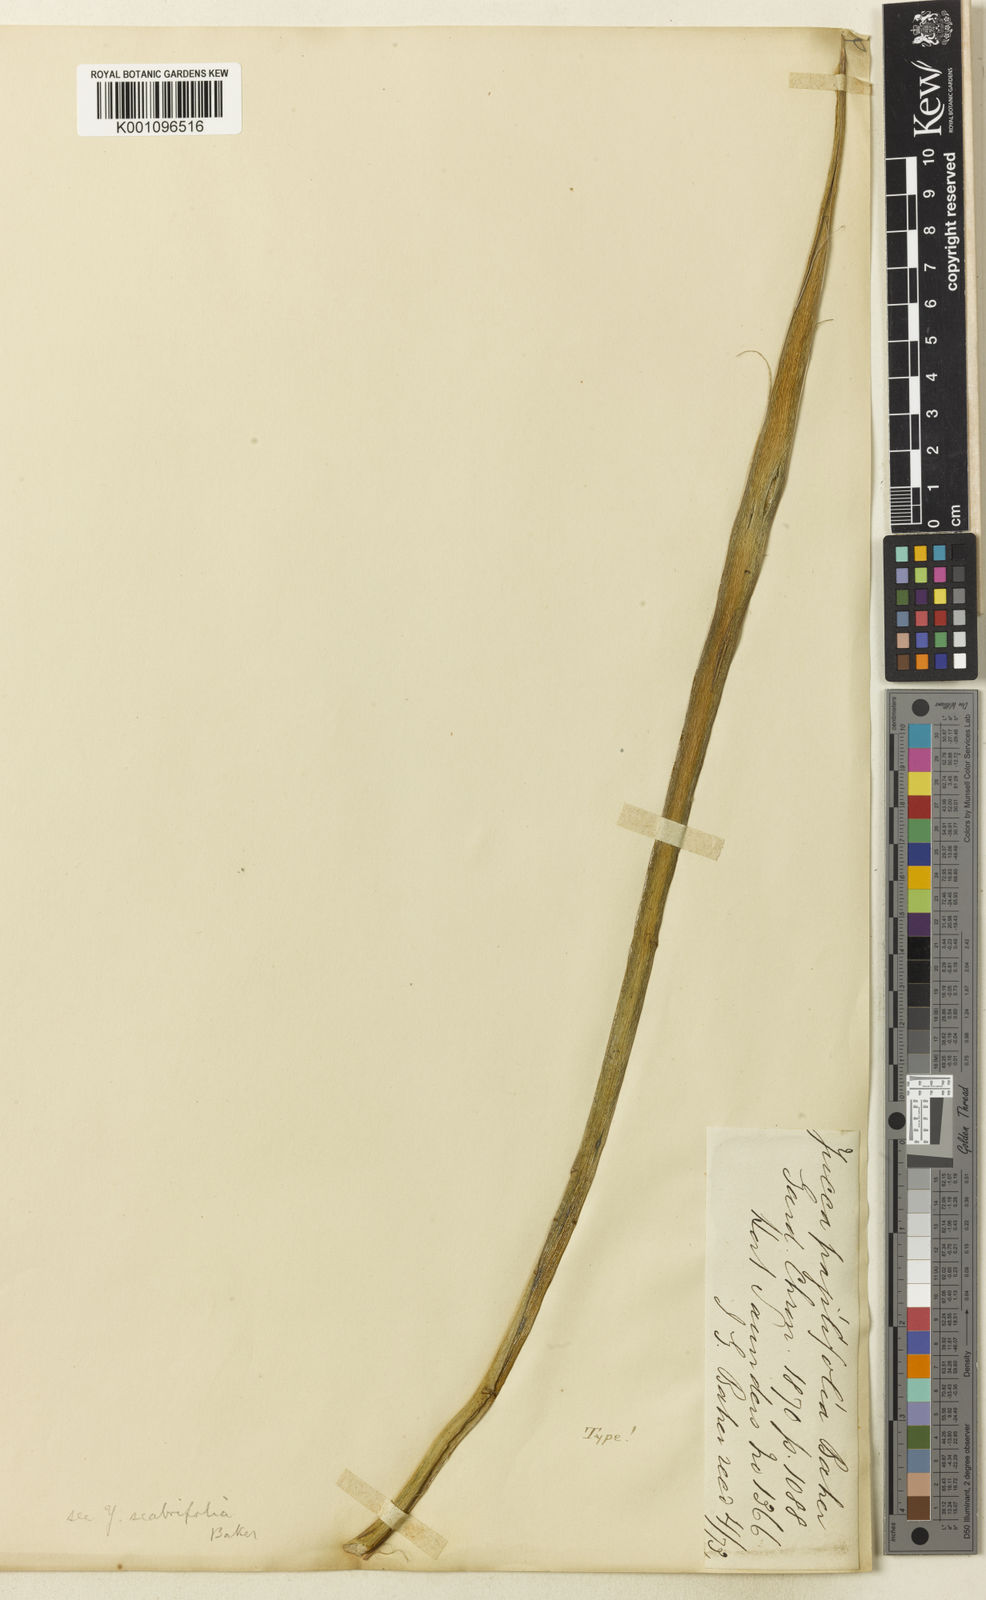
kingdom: Plantae
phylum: Tracheophyta
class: Liliopsida
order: Asparagales
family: Asparagaceae
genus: Yucca
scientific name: Yucca baccata
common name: Banana yucca
